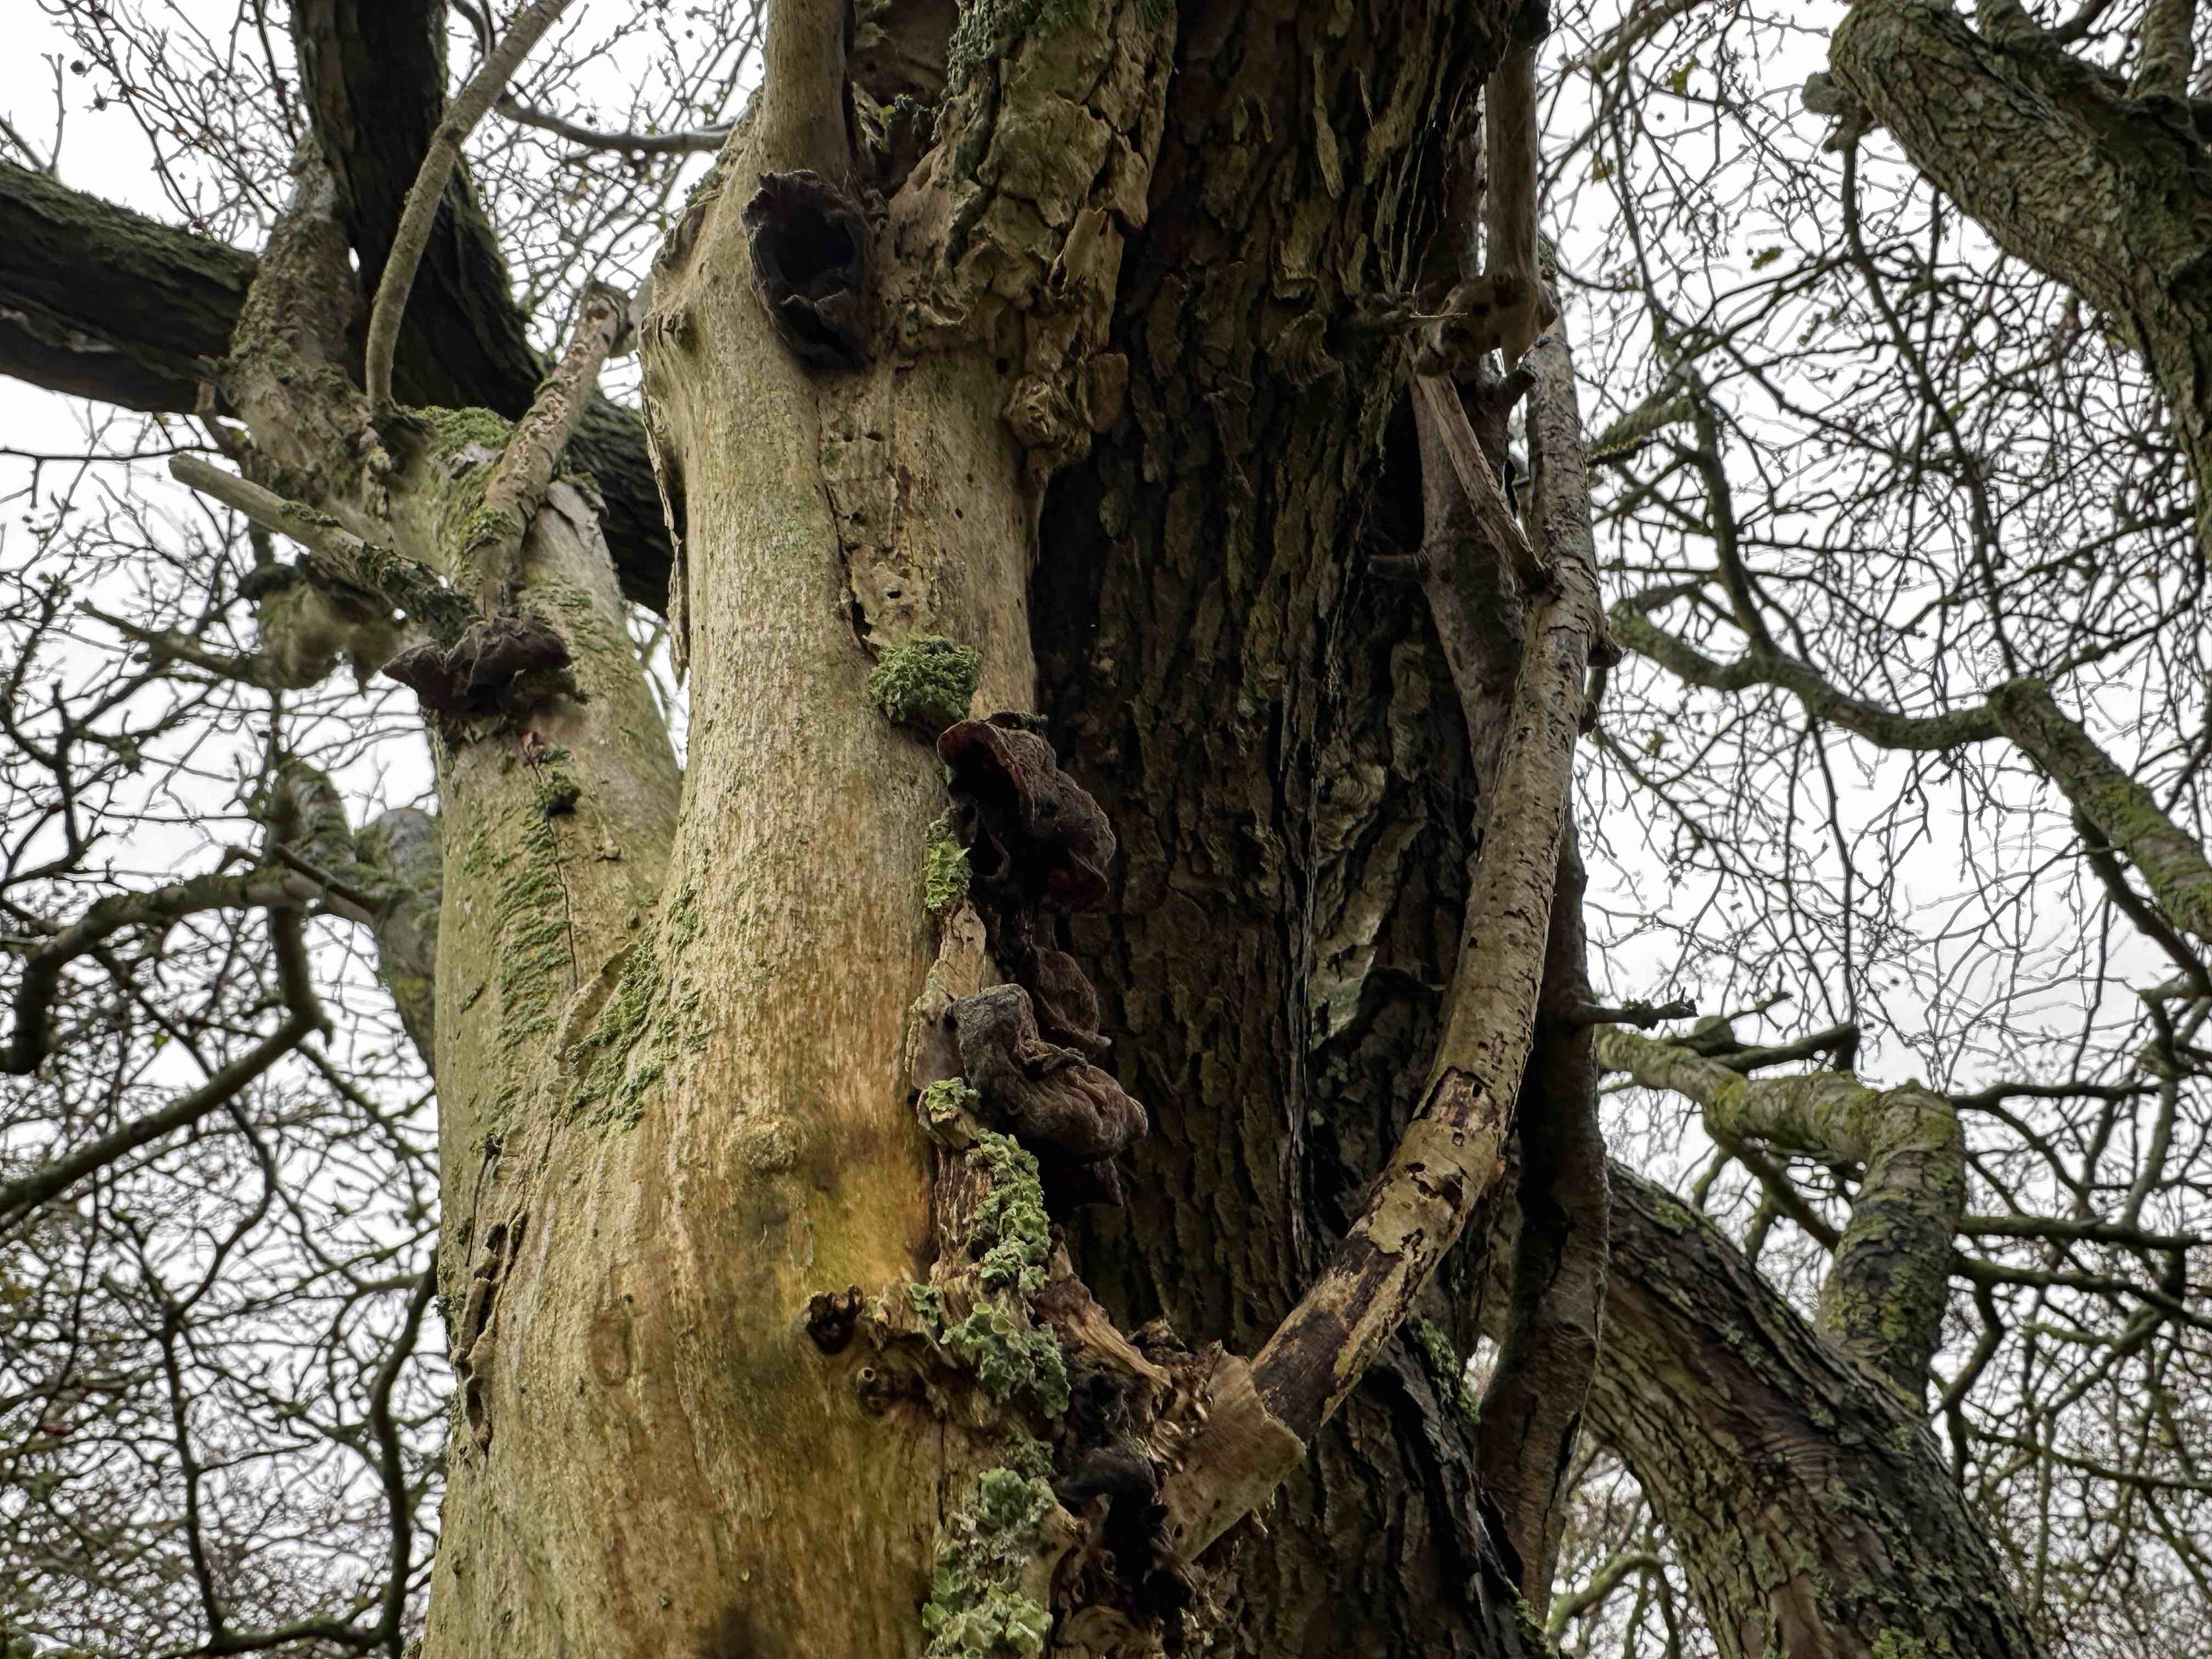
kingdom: Fungi
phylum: Basidiomycota
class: Agaricomycetes
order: Auriculariales
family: Auriculariaceae
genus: Auricularia
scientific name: Auricularia auricula-judae
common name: almindelig judasøre
